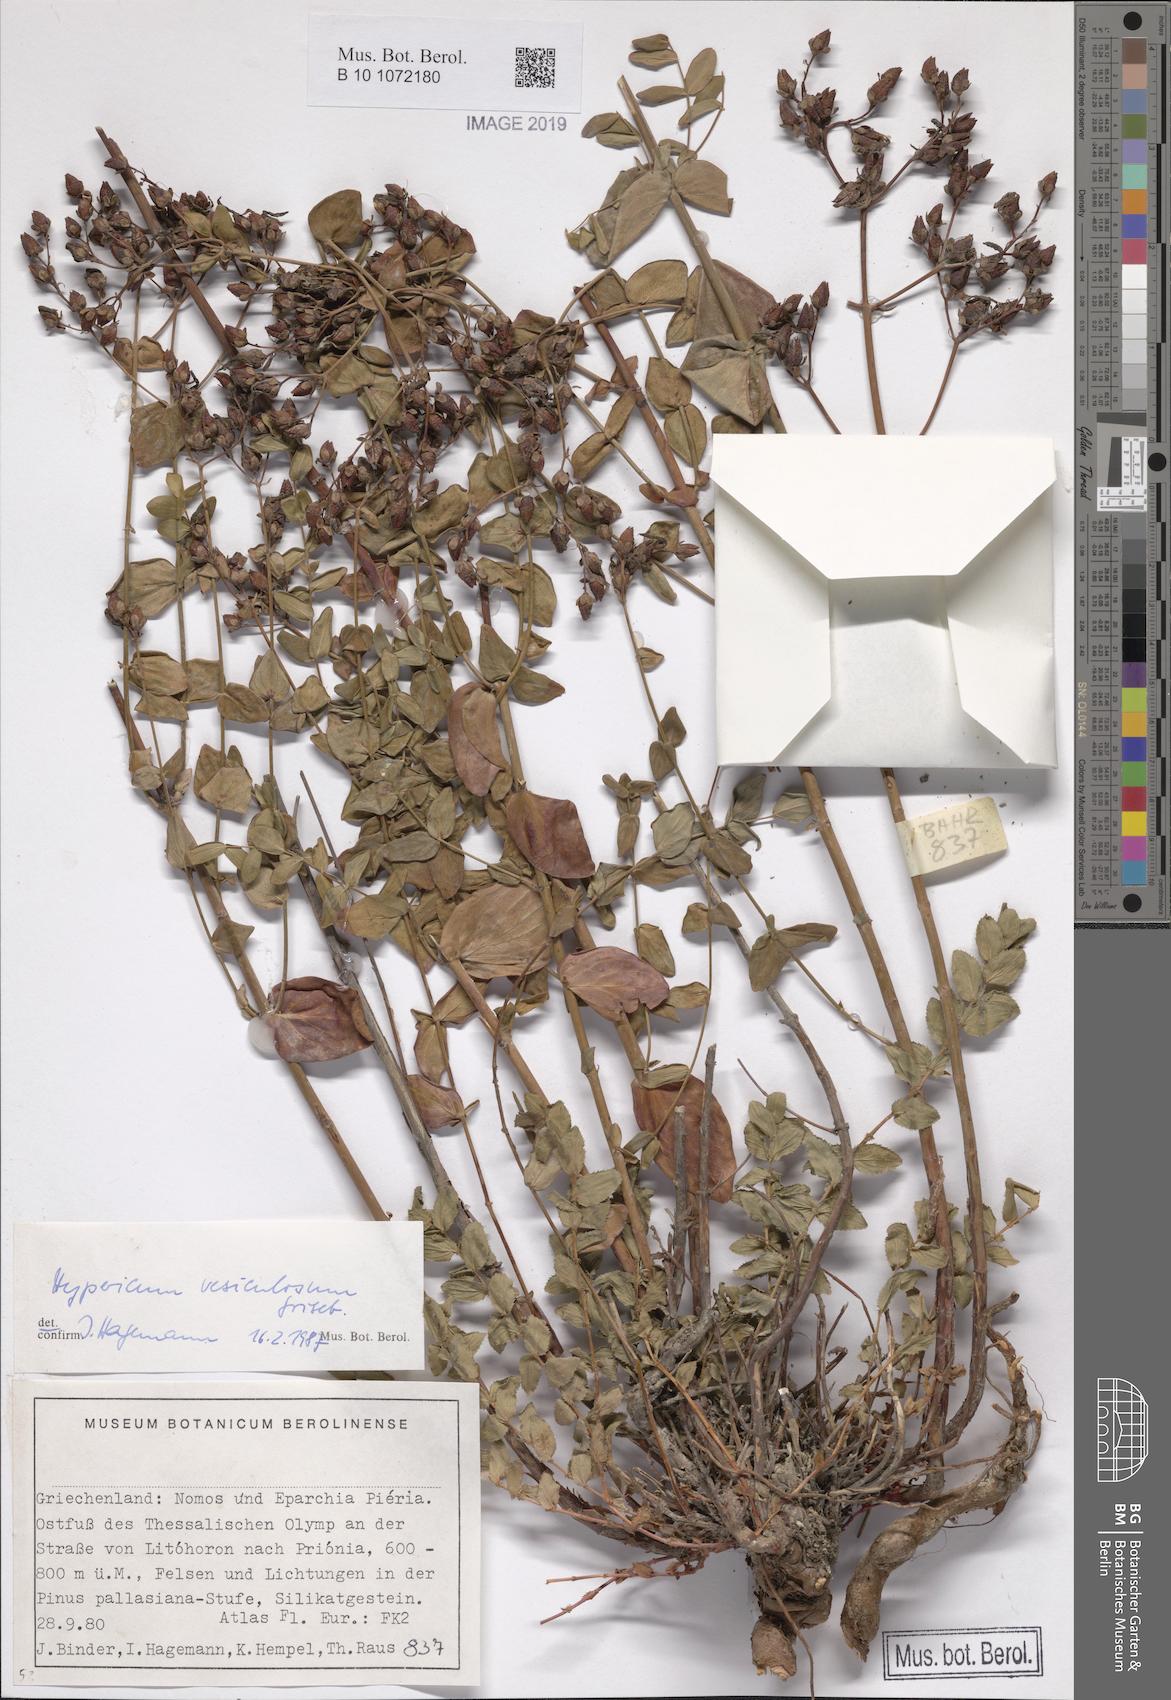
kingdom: Plantae
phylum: Tracheophyta
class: Magnoliopsida
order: Malpighiales
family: Hypericaceae
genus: Hypericum
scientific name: Hypericum vesiculosum
